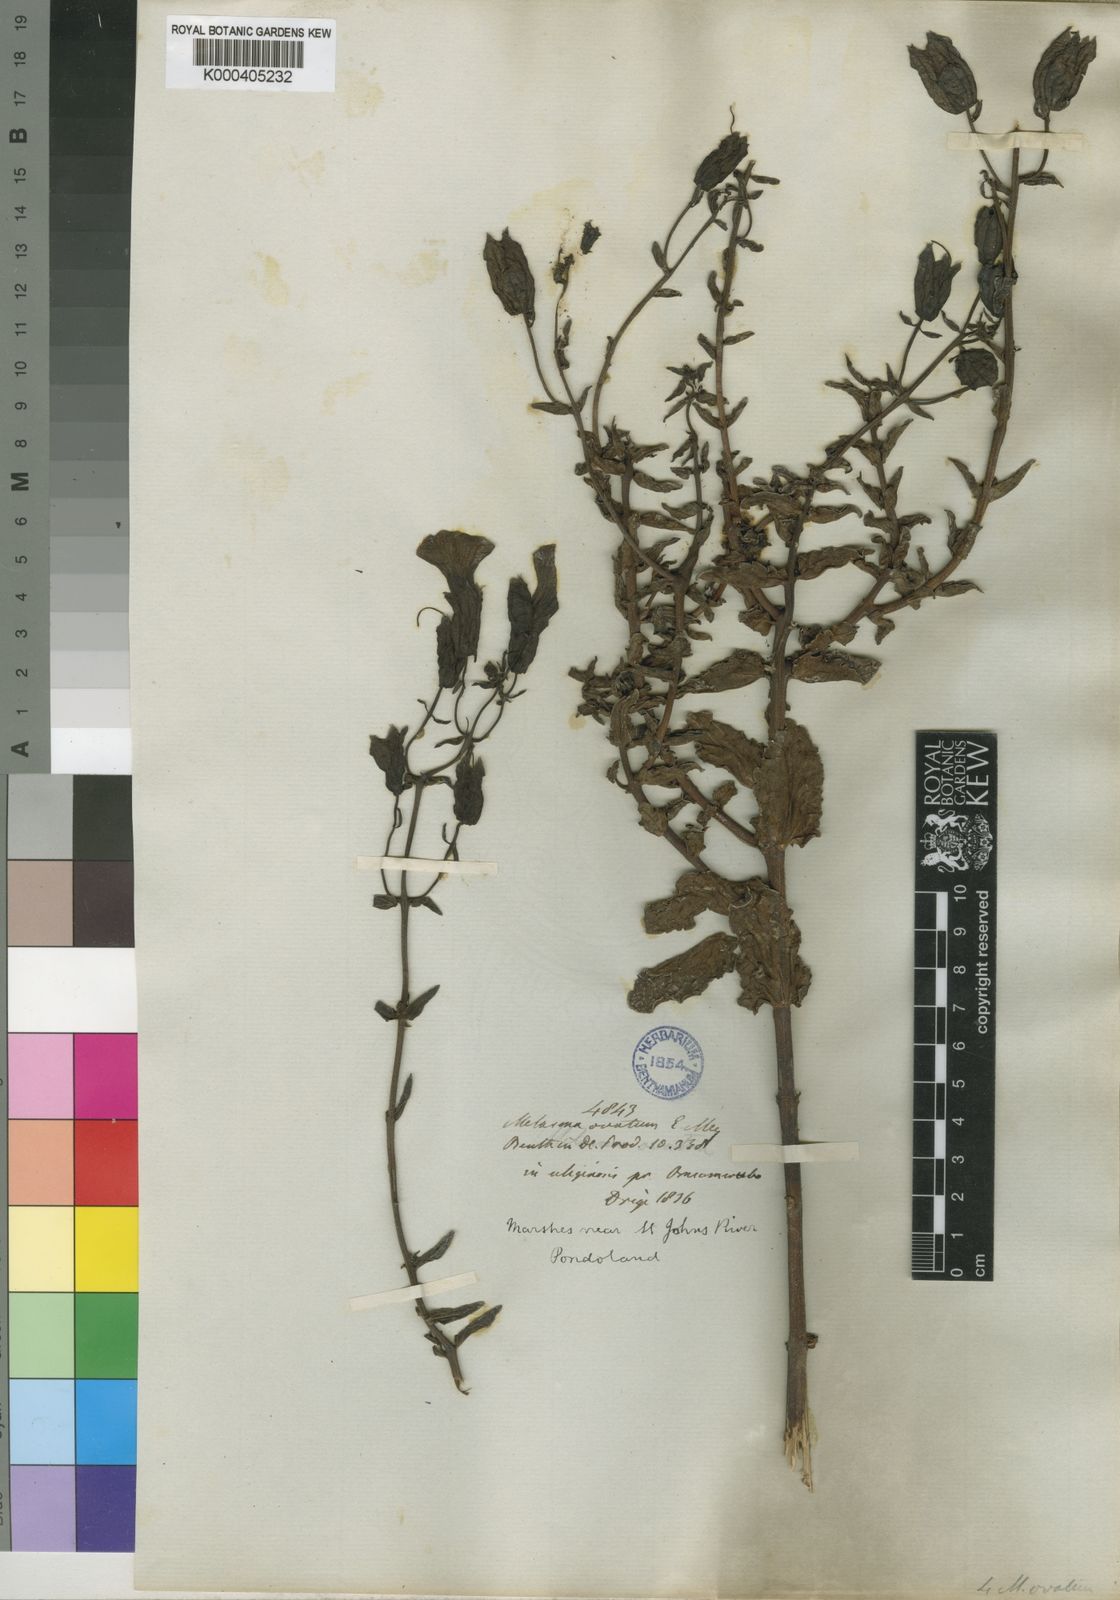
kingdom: Plantae
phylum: Tracheophyta
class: Magnoliopsida
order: Lamiales
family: Orobanchaceae
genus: Melasma
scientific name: Melasma scabrum
